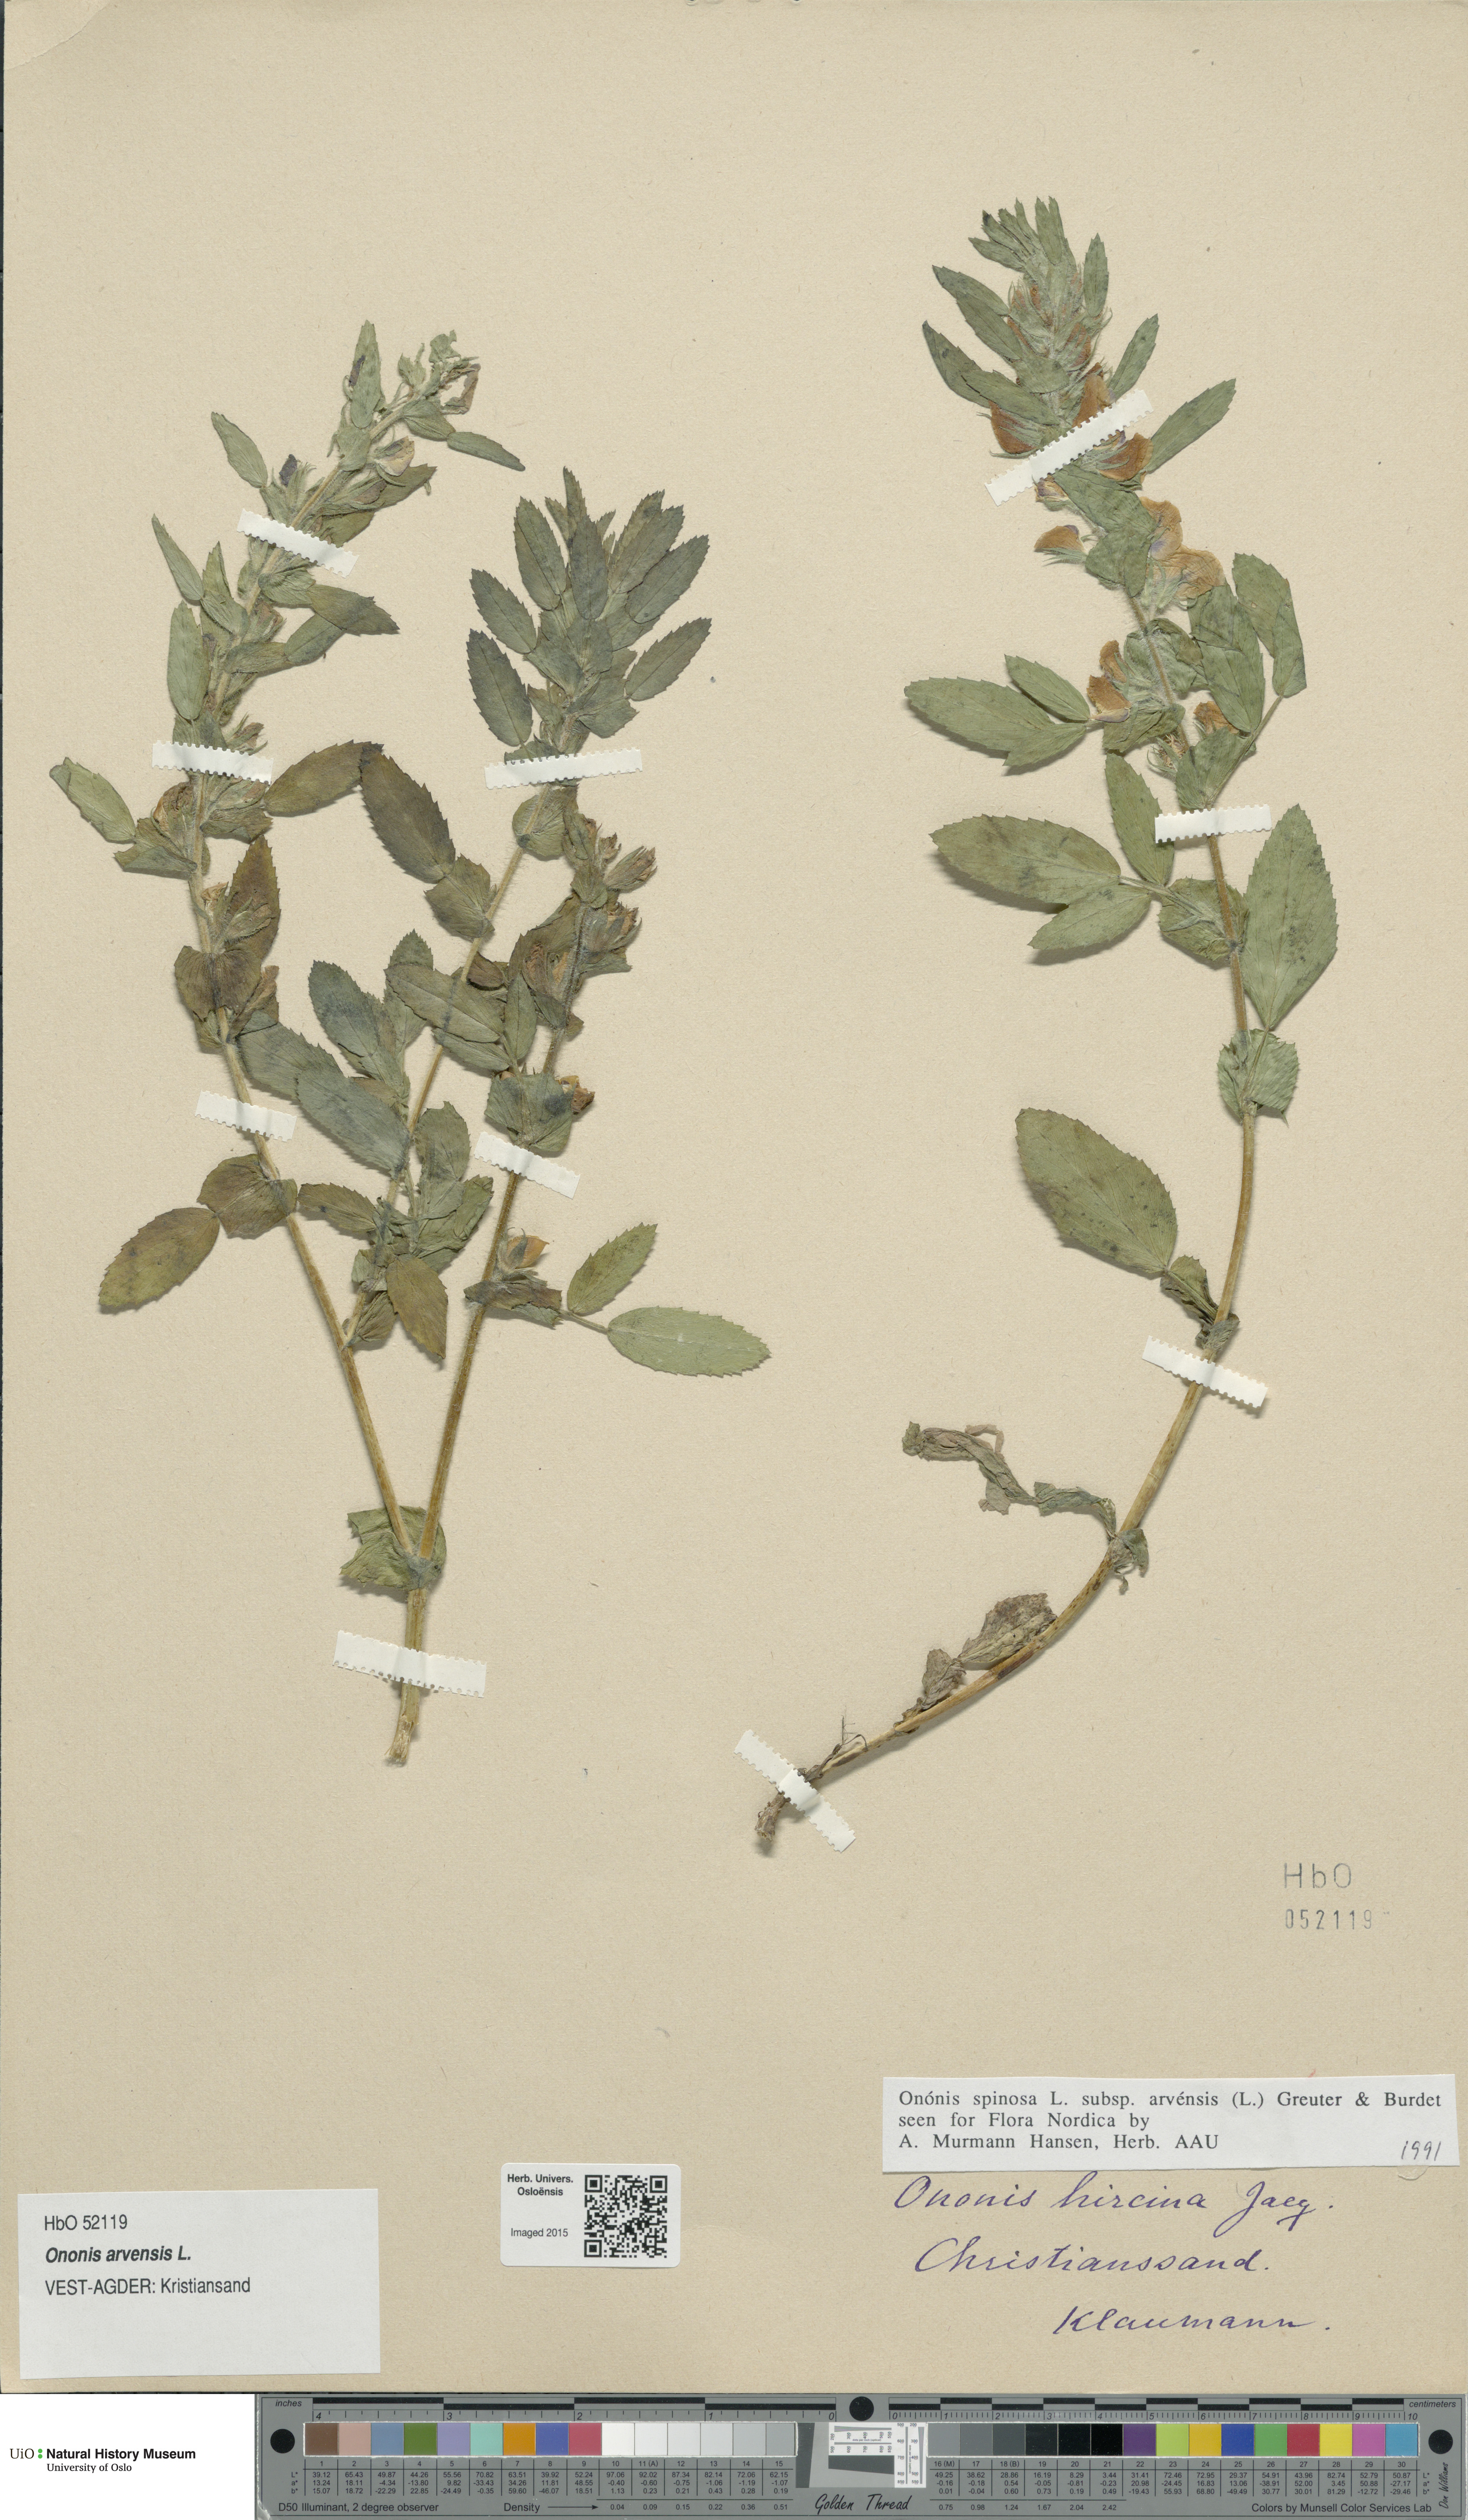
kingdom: Plantae
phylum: Tracheophyta
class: Magnoliopsida
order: Fabales
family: Fabaceae
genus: Ononis
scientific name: Ononis arvensis
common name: Field restharrow
